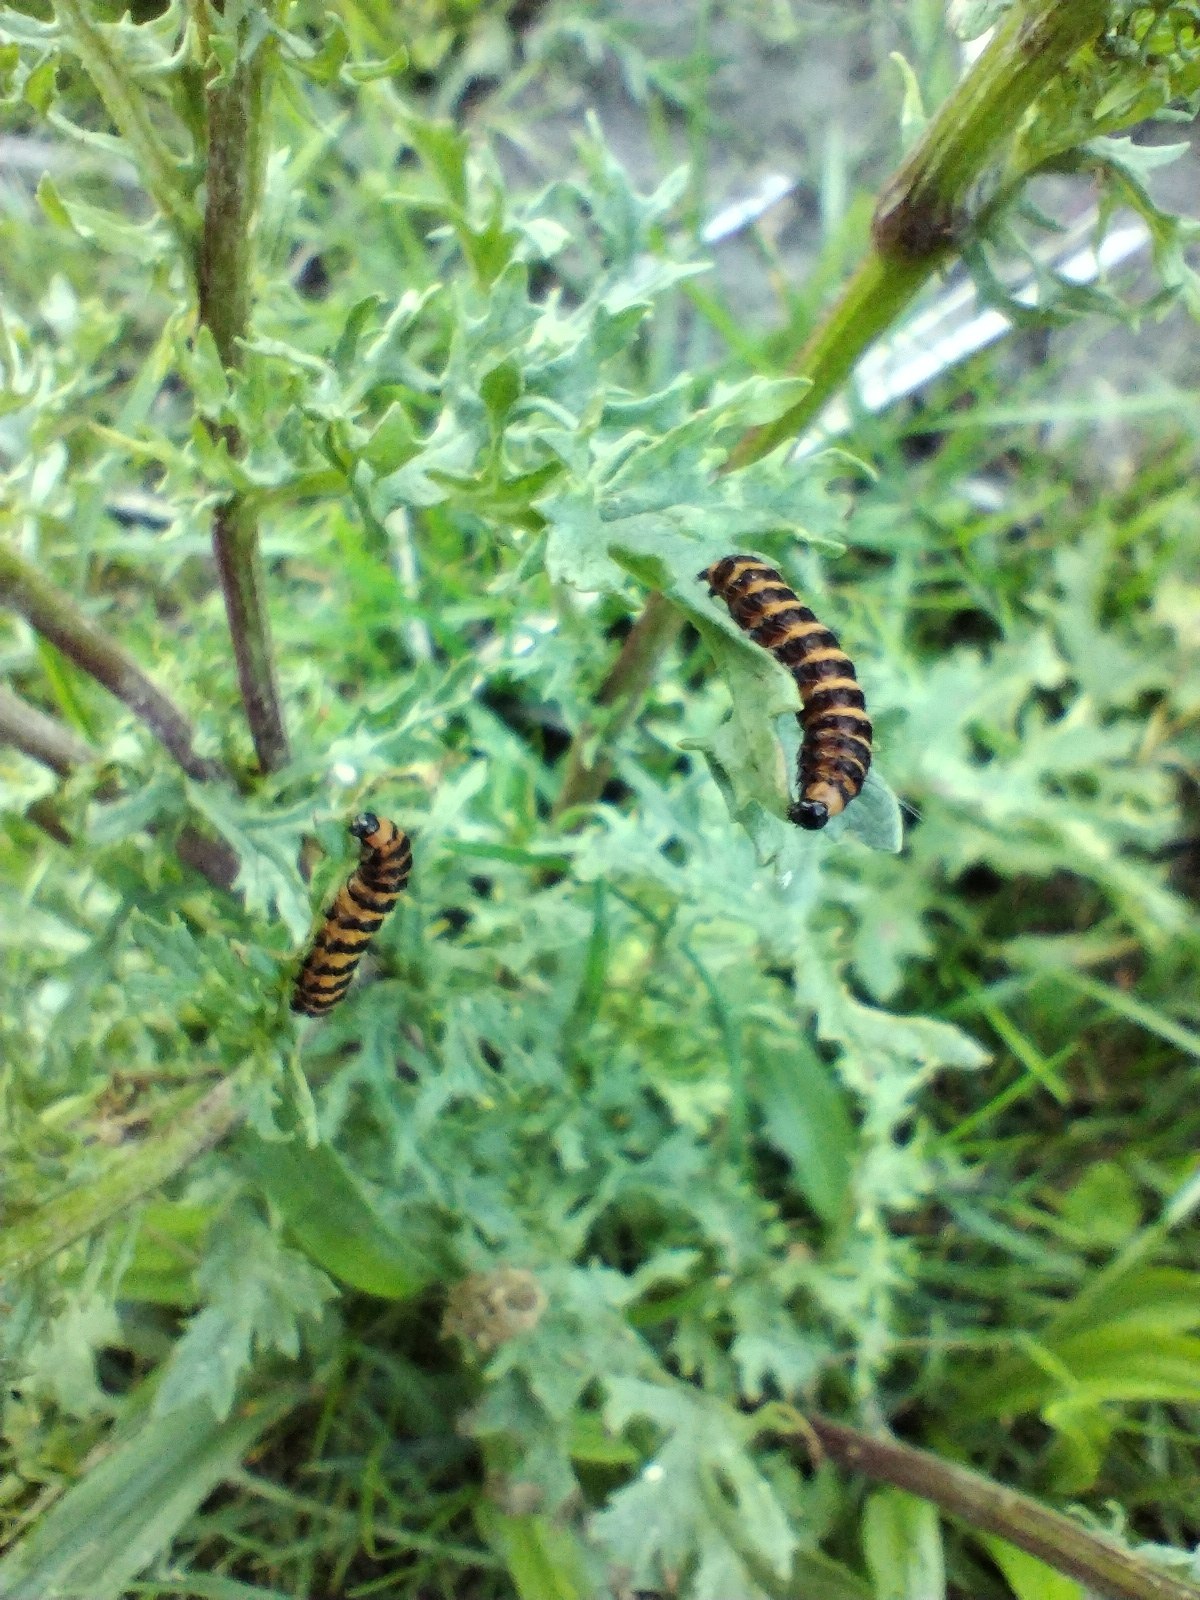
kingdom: Animalia
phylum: Arthropoda
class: Insecta
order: Lepidoptera
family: Erebidae
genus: Tyria
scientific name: Tyria jacobaeae
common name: Blodplet
